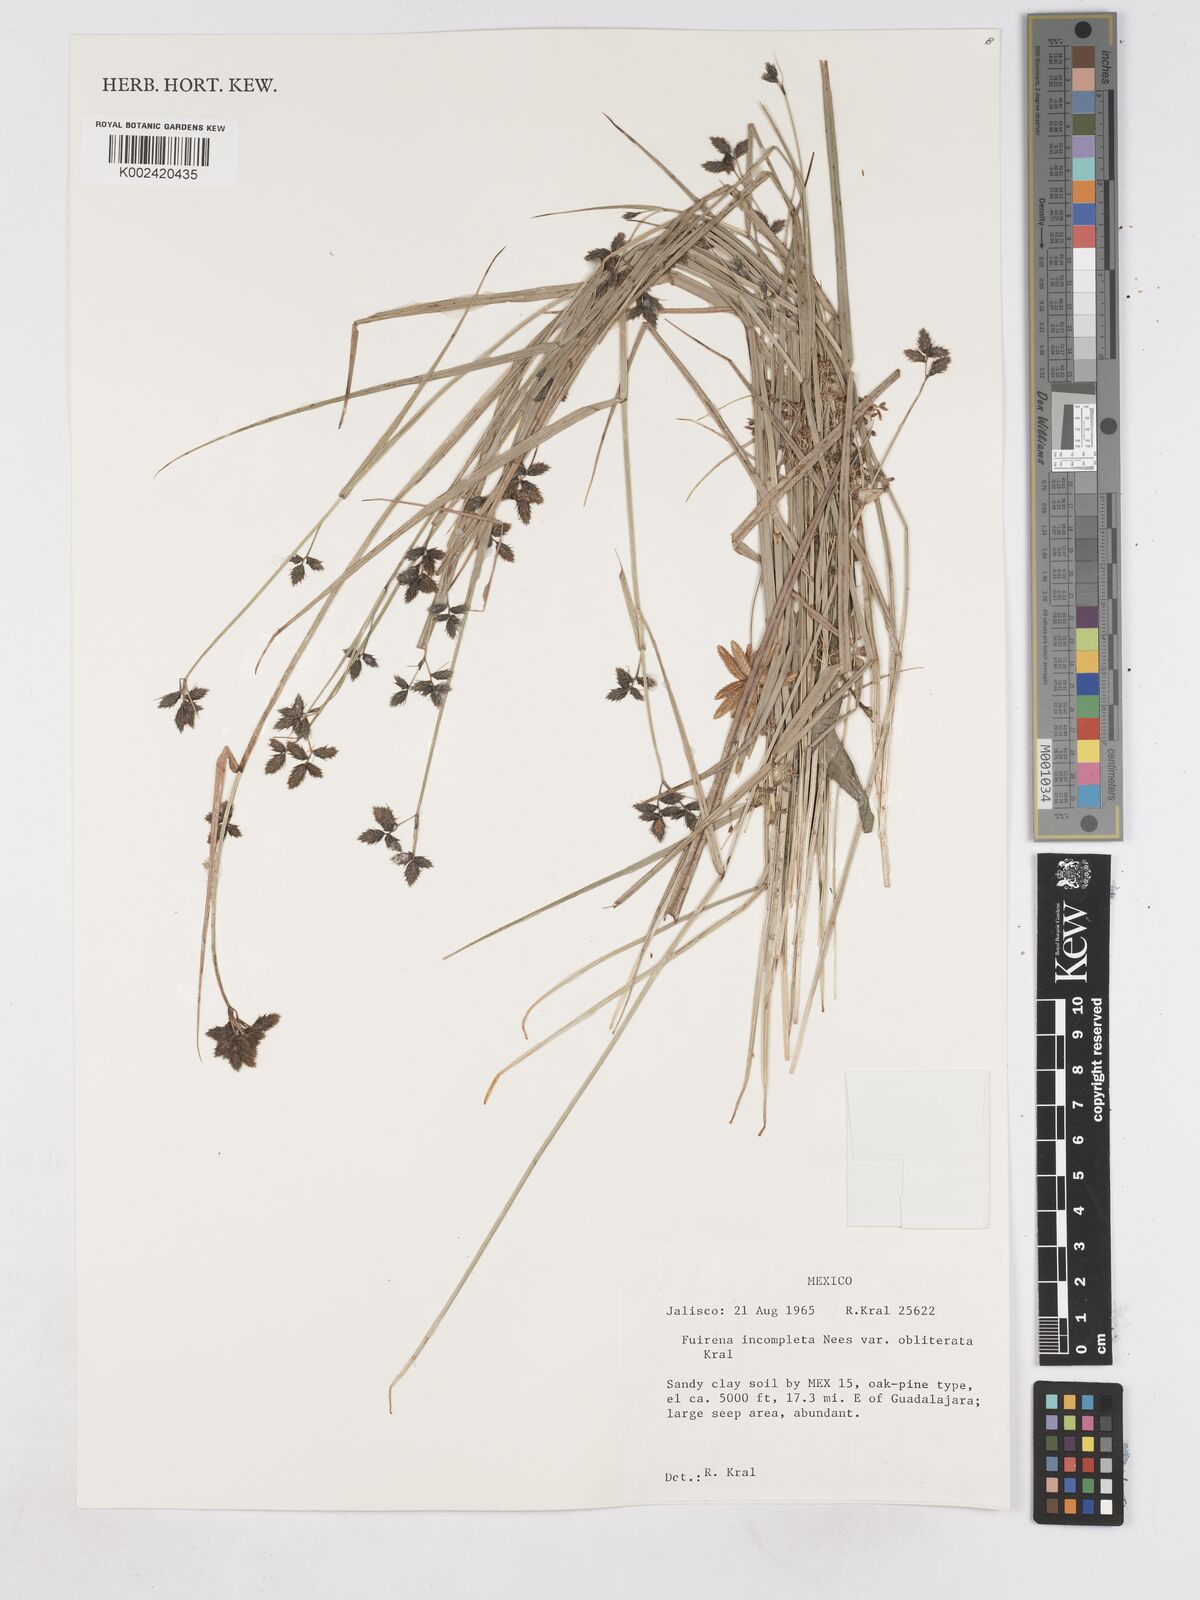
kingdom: Plantae
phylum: Tracheophyta
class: Liliopsida
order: Poales
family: Cyperaceae
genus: Fuirena
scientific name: Fuirena incompleta
